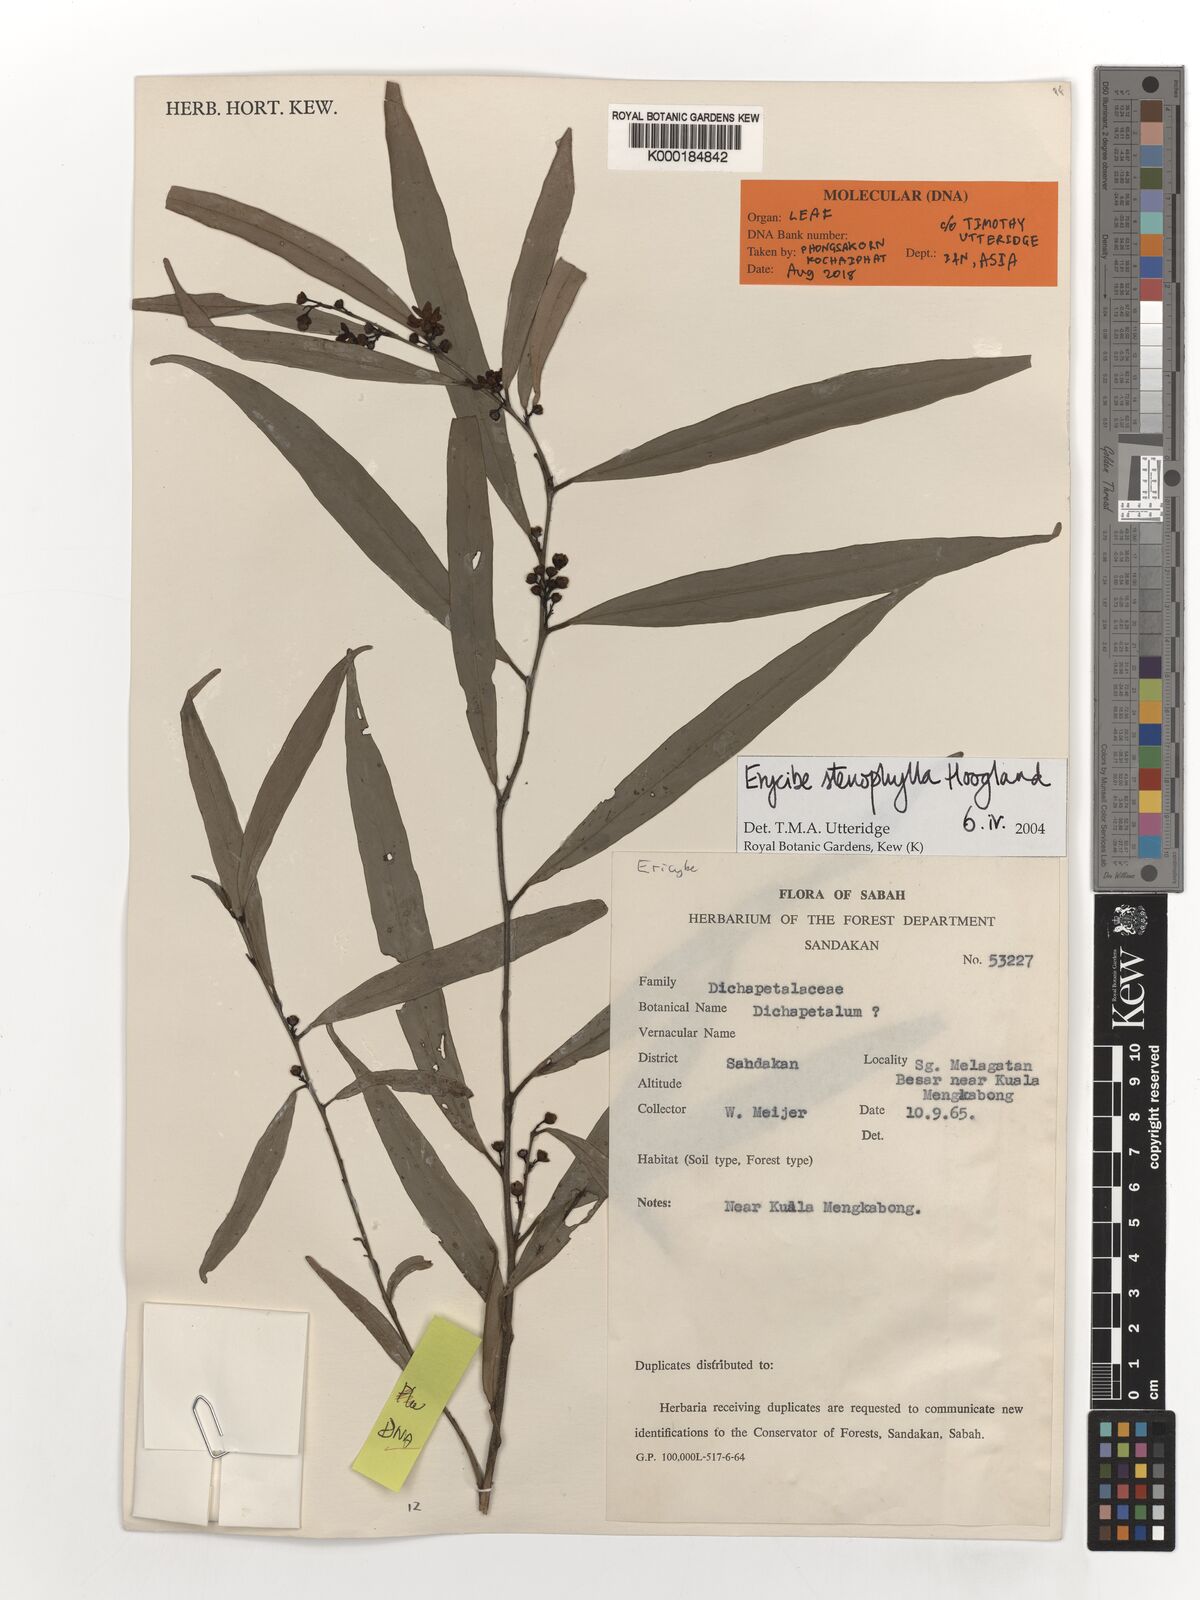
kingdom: Plantae
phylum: Tracheophyta
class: Magnoliopsida
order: Solanales
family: Convolvulaceae
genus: Erycibe
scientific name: Erycibe stenophylla
